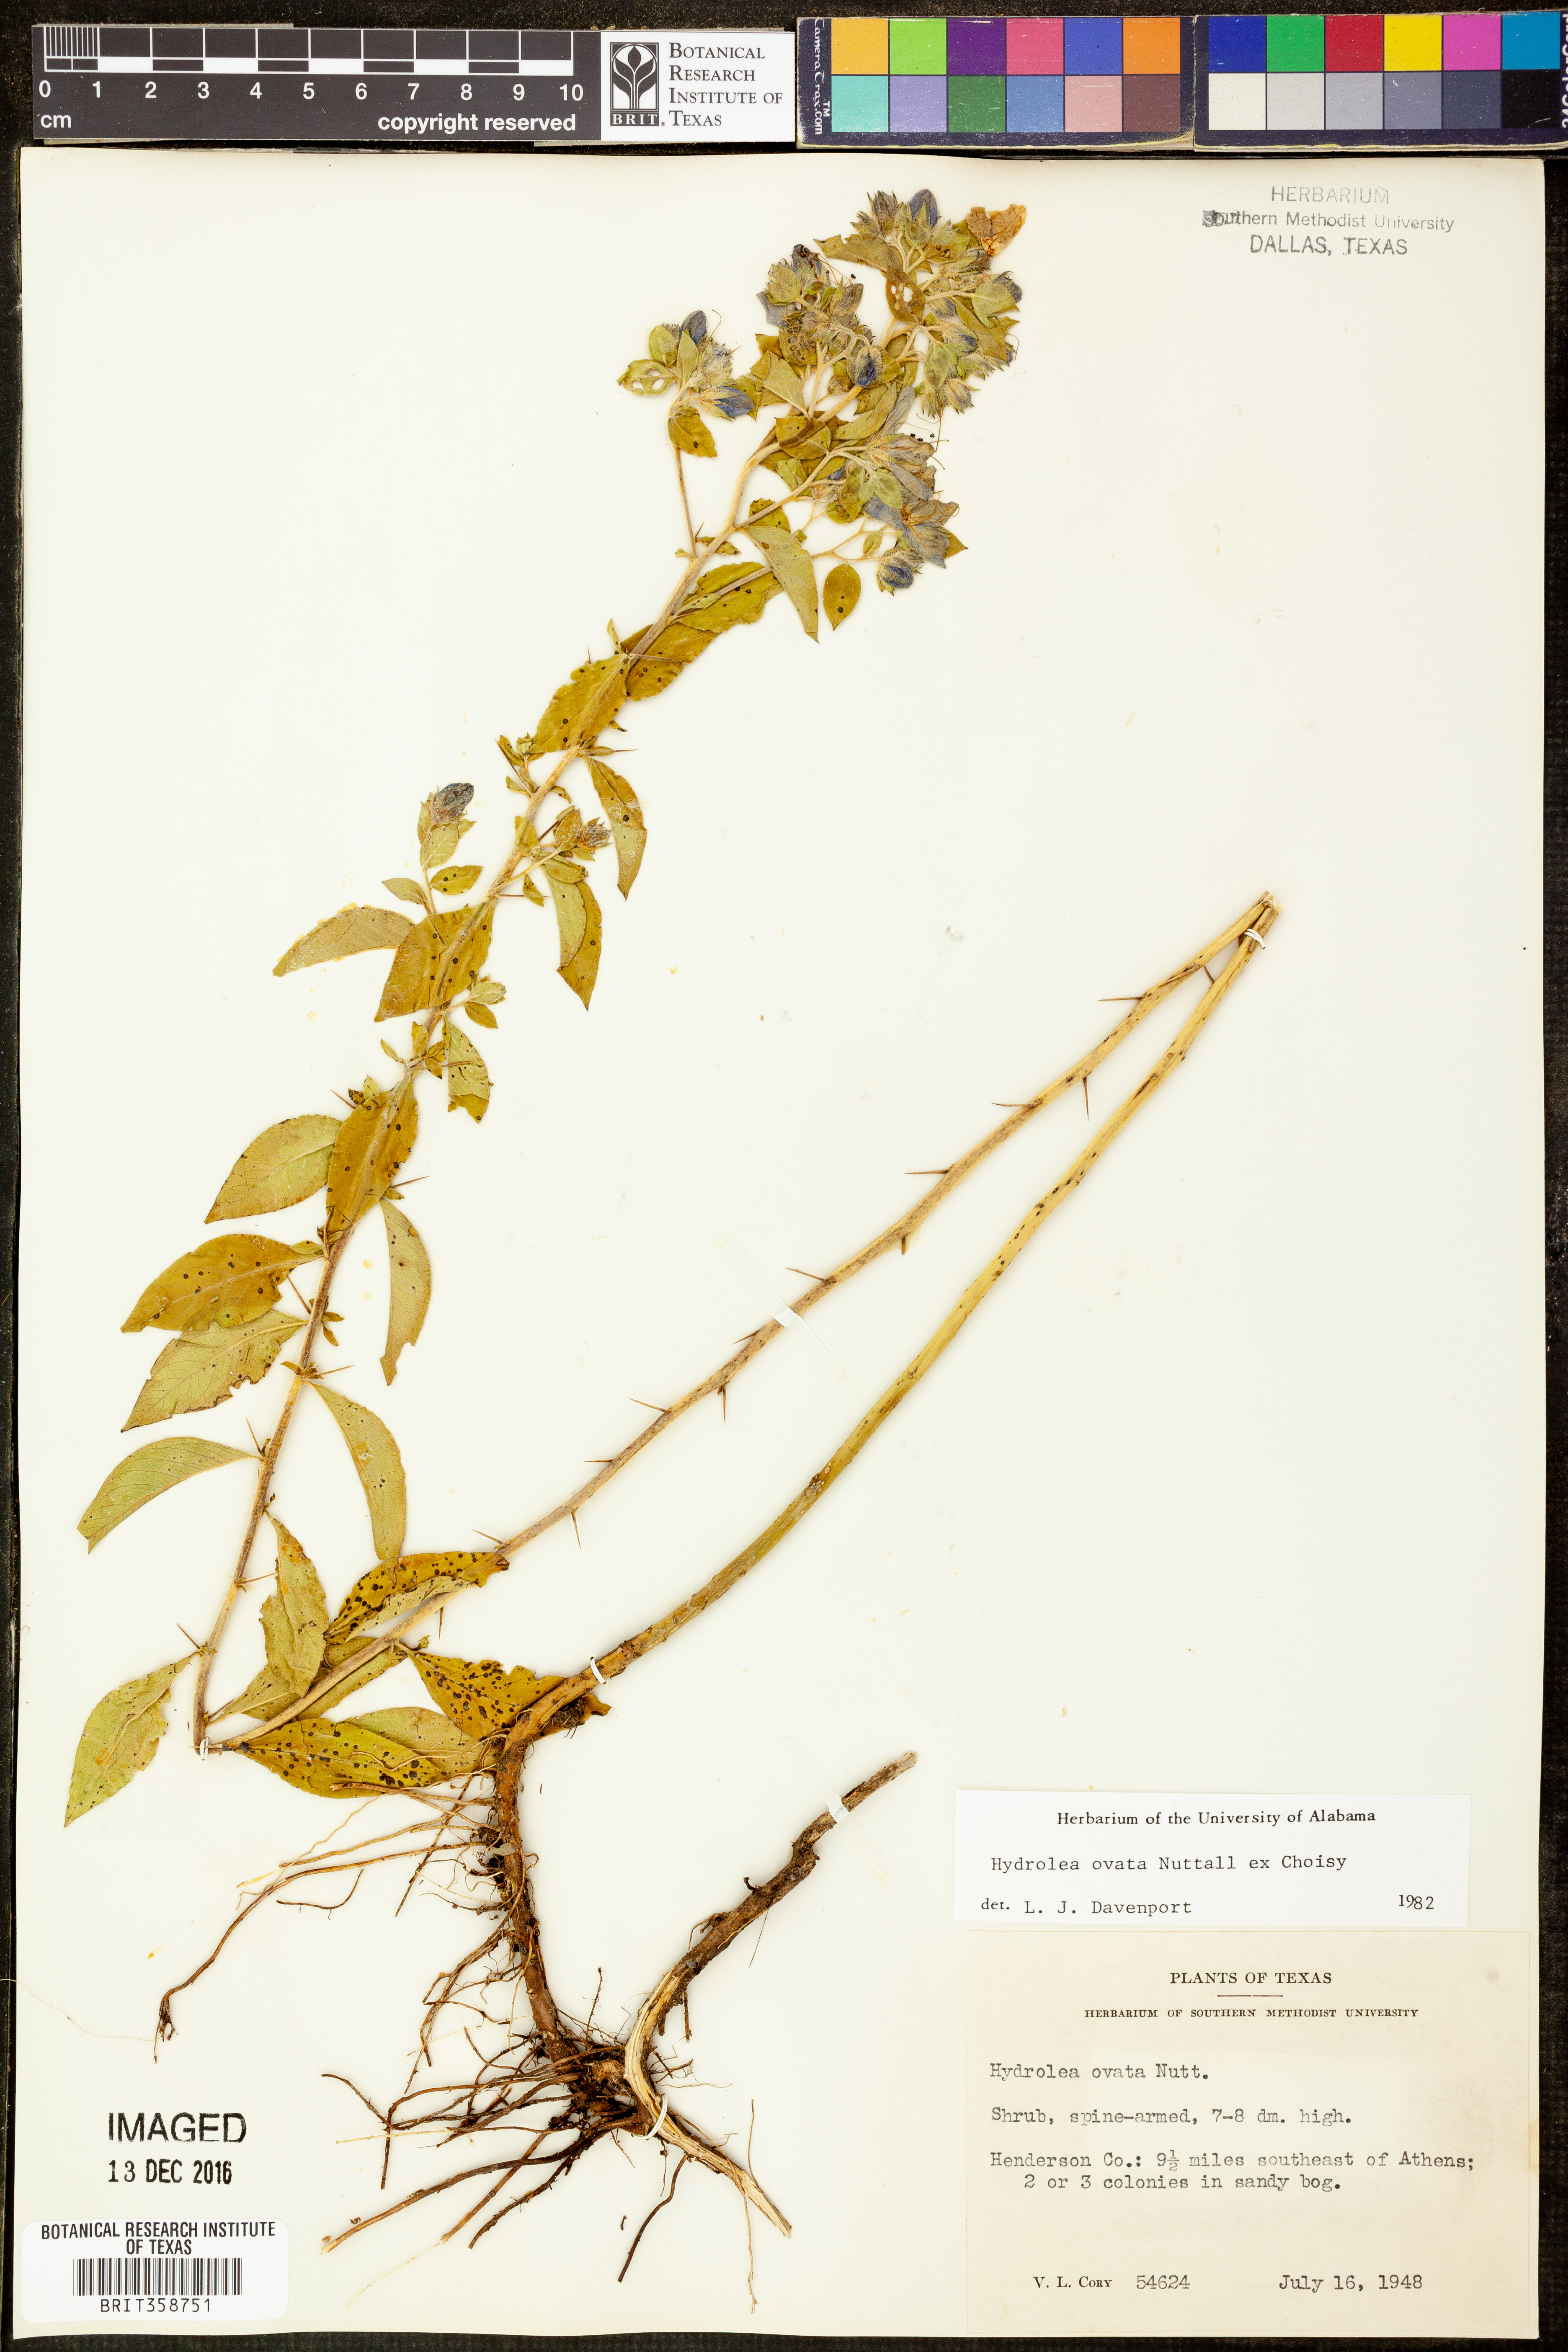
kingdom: Plantae
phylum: Tracheophyta
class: Magnoliopsida
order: Solanales
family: Hydroleaceae
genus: Hydrolea
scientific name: Hydrolea ovata
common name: Ovate false fiddleleaf
